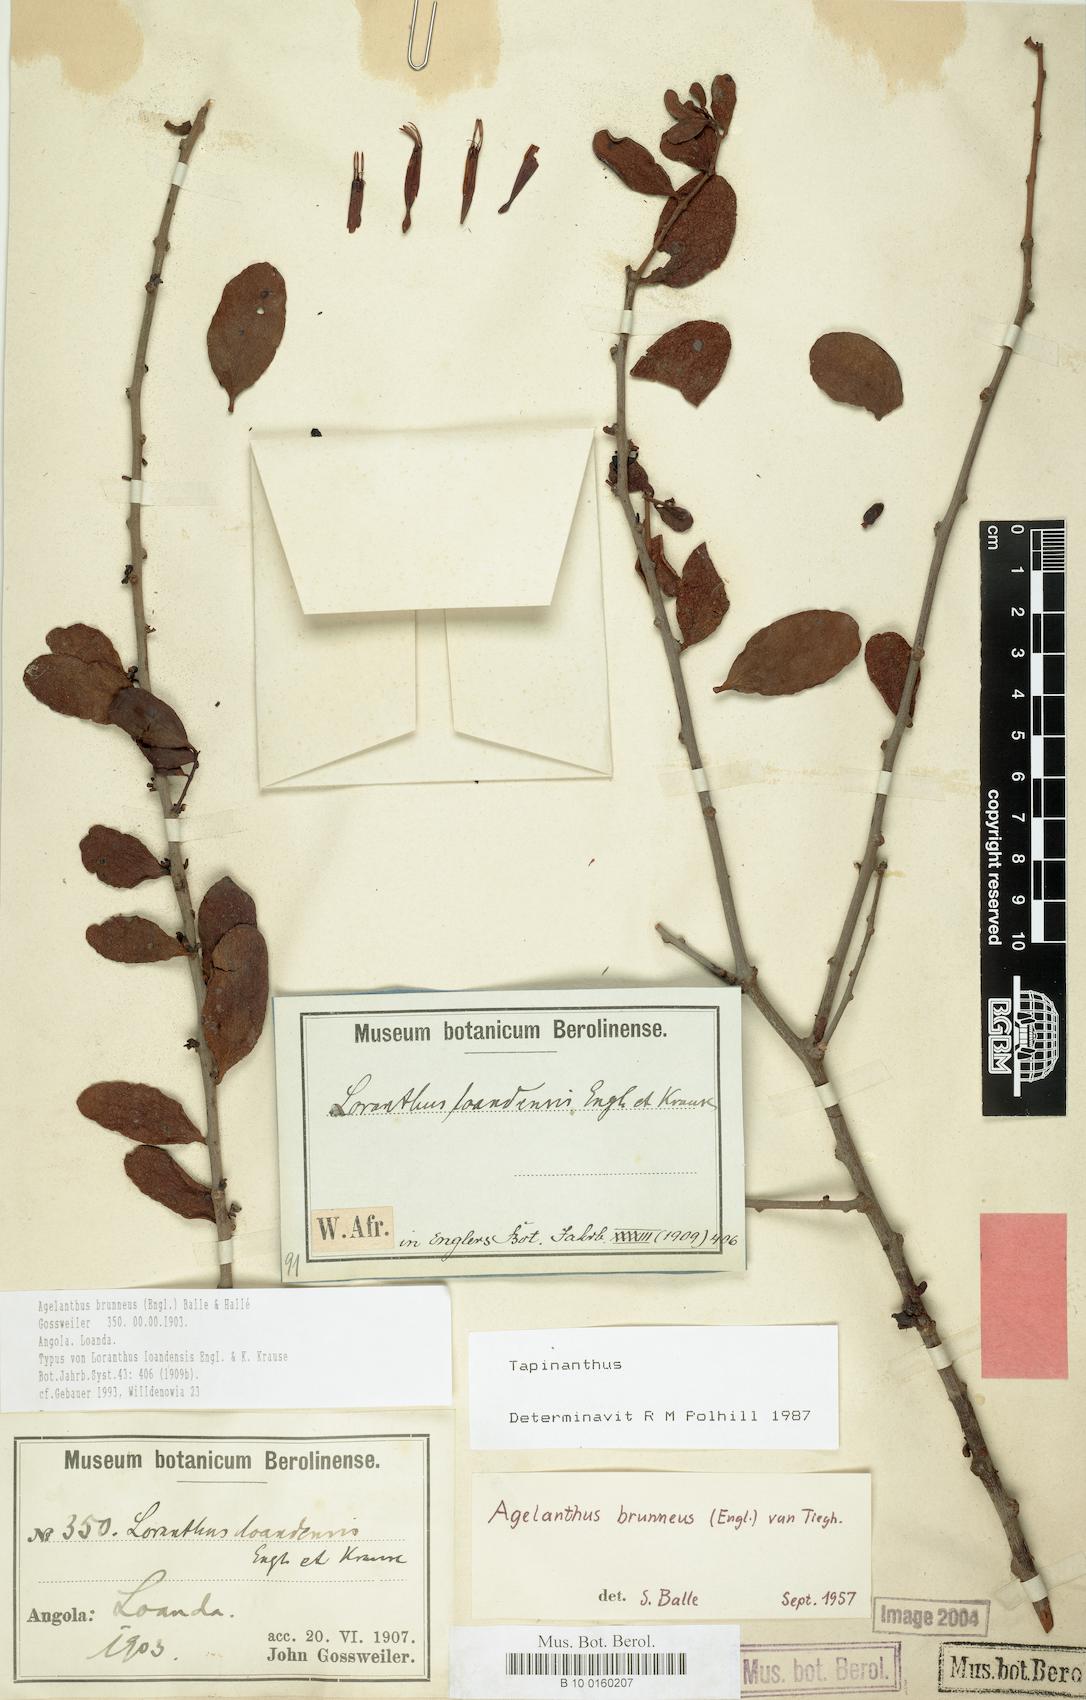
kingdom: Plantae
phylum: Tracheophyta
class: Magnoliopsida
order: Santalales
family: Loranthaceae
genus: Agelanthus
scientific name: Agelanthus brunneus
